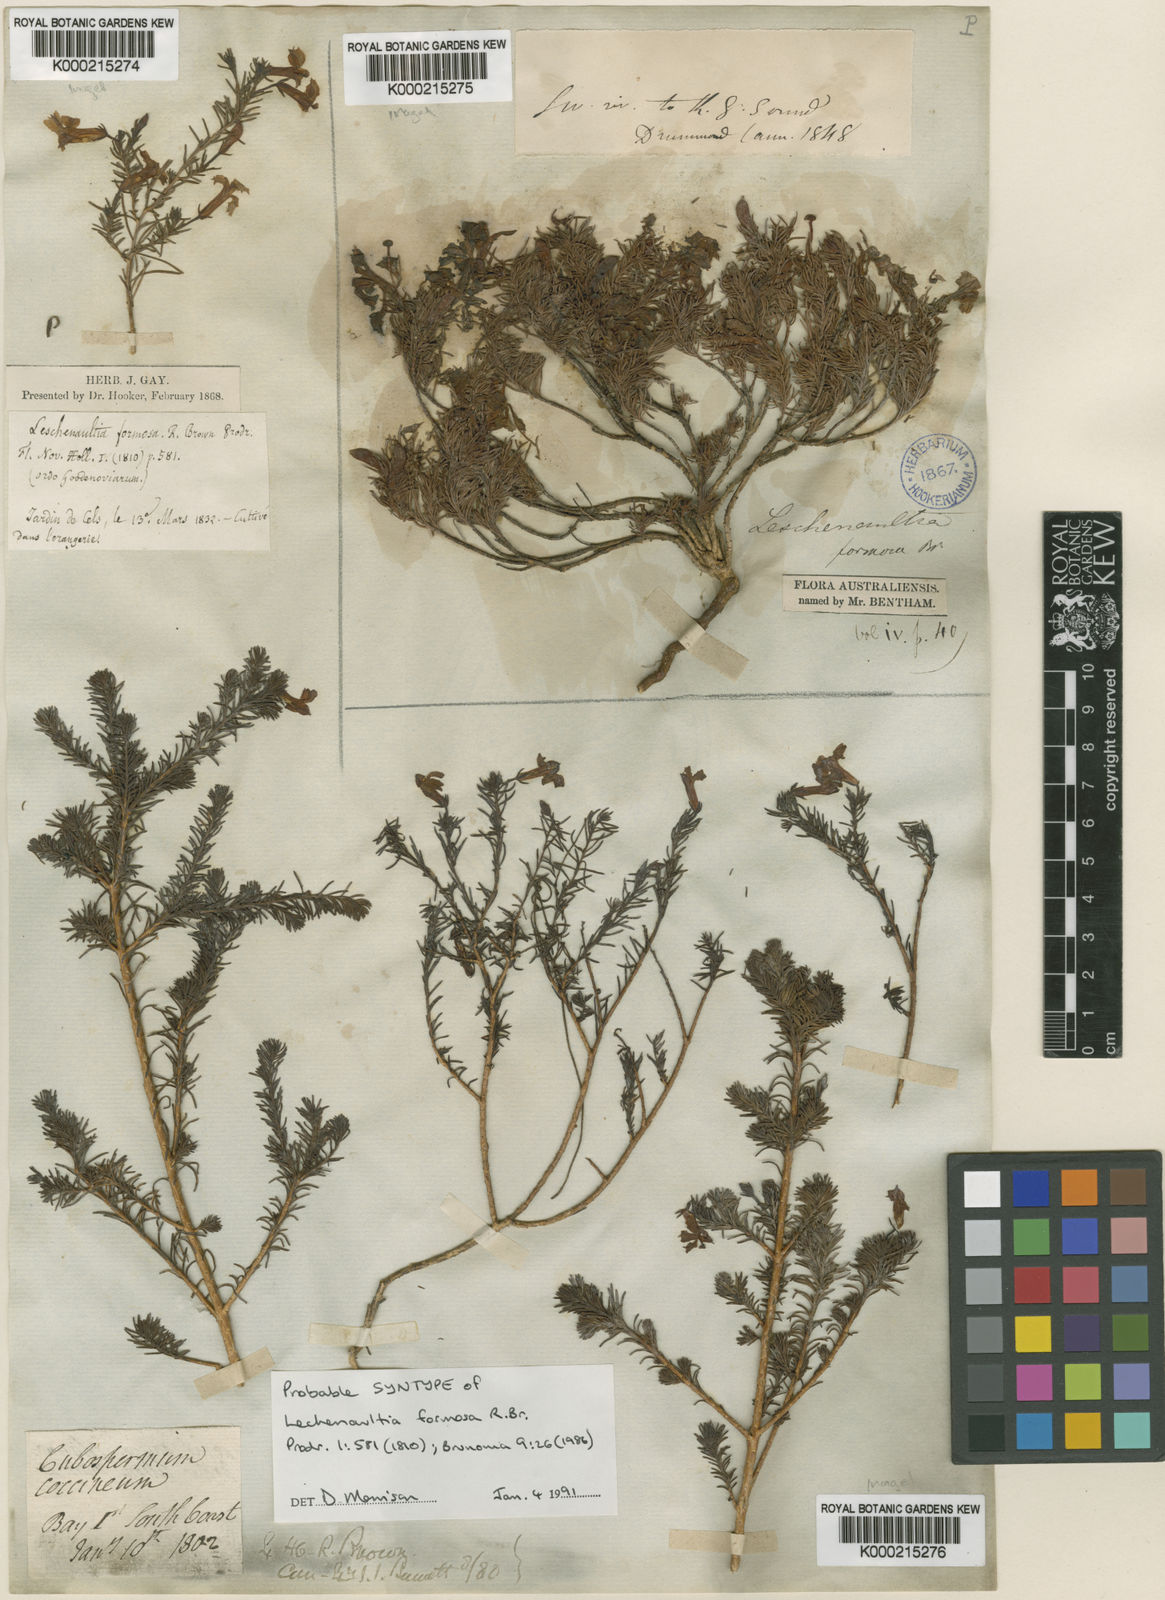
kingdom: Plantae
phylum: Tracheophyta
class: Magnoliopsida
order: Asterales
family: Goodeniaceae
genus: Leschenaultia
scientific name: Leschenaultia formosa
